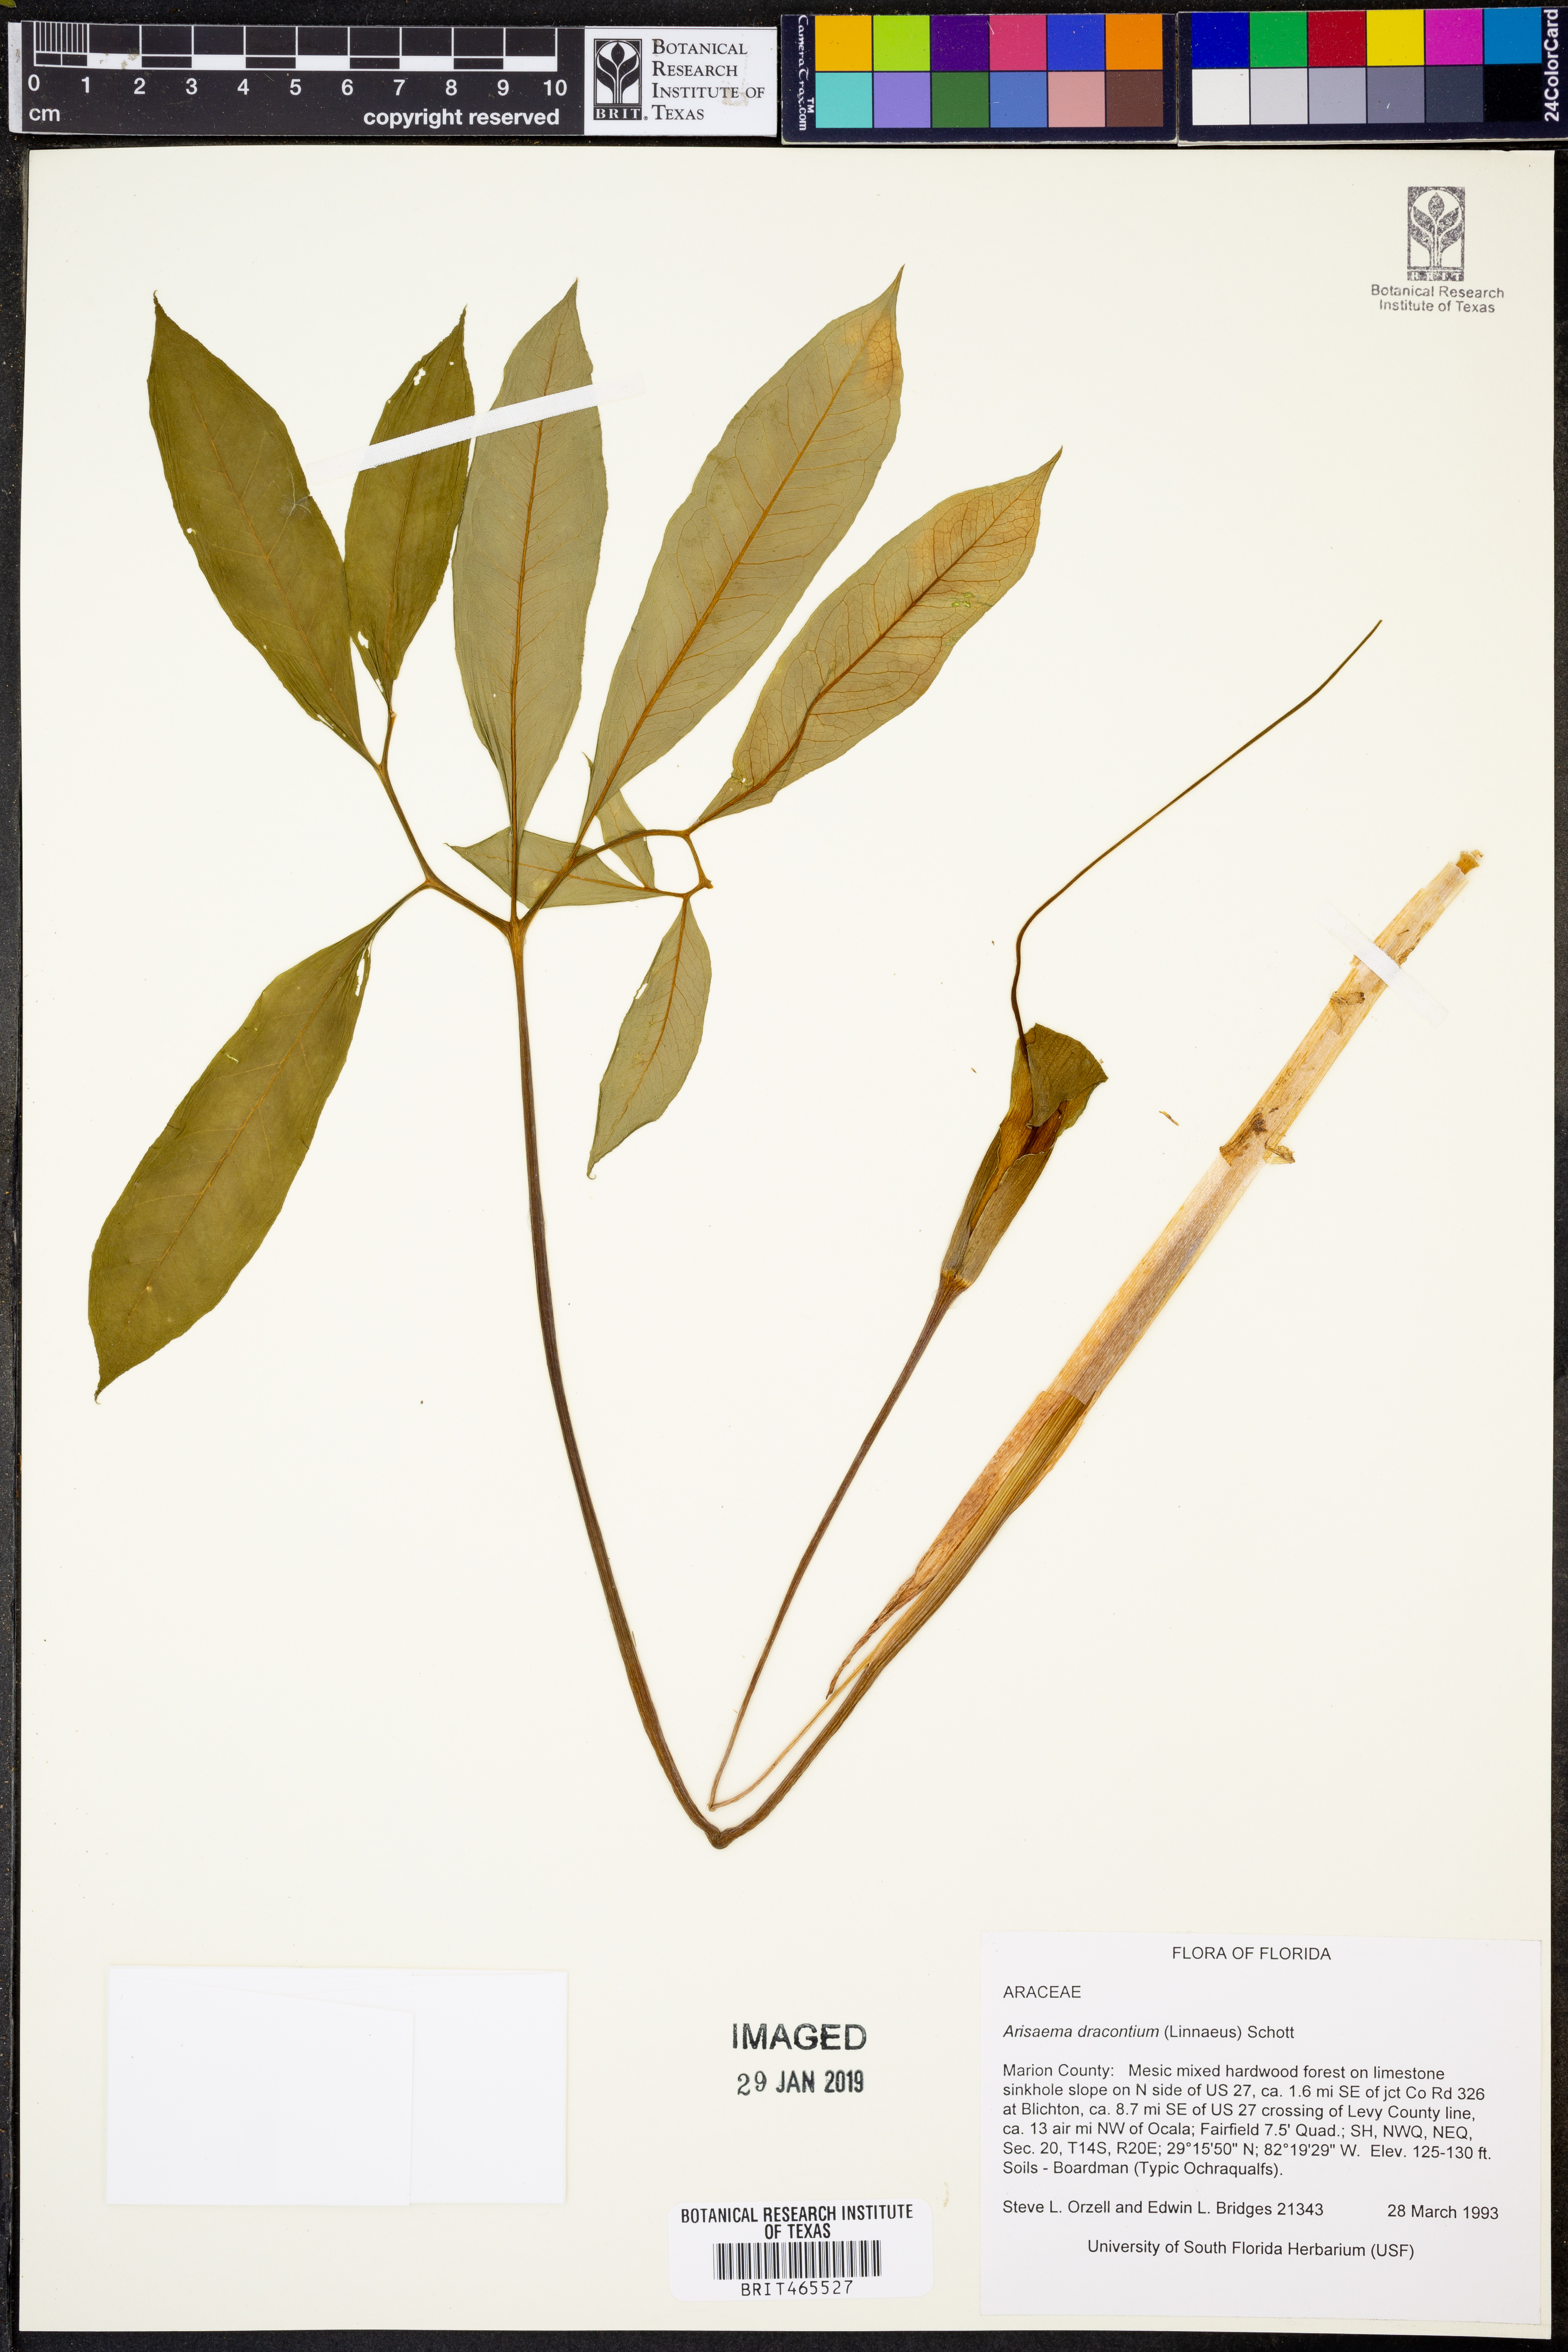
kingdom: Plantae
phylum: Tracheophyta
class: Liliopsida
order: Alismatales
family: Araceae
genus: Arisaema
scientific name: Arisaema dracontium
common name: Dragon-arum
